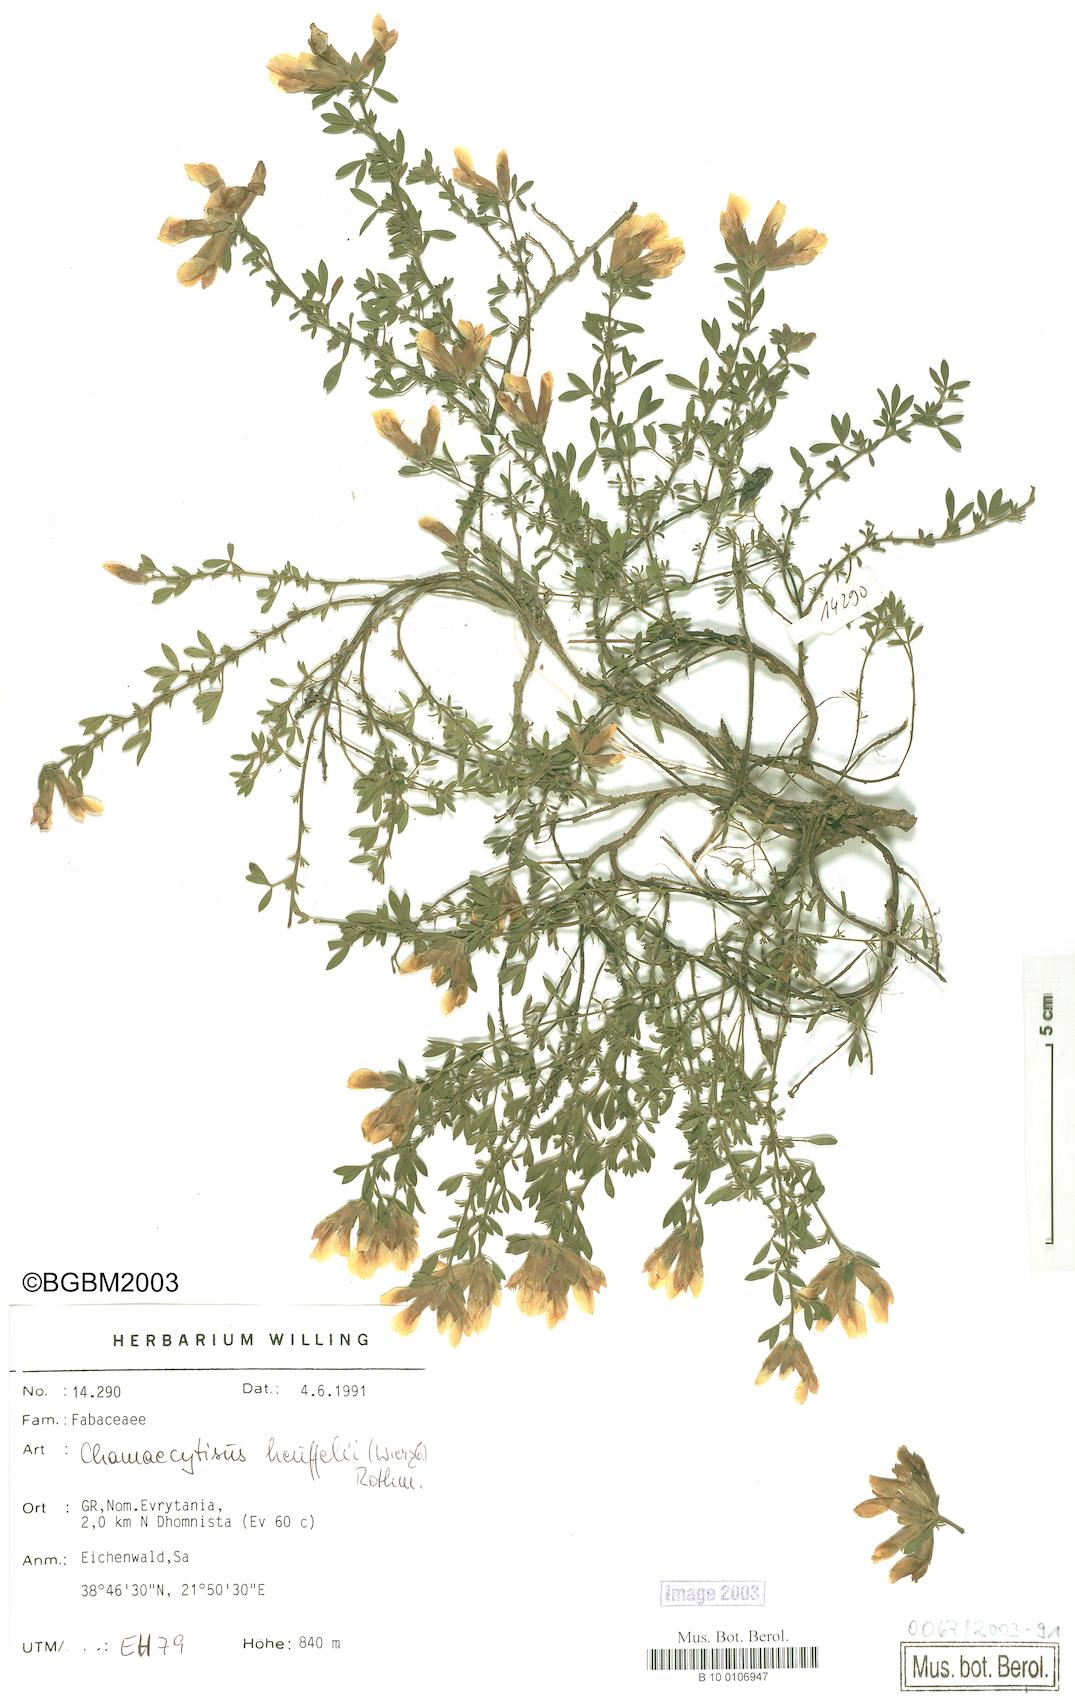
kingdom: Plantae
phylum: Tracheophyta
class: Magnoliopsida
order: Fabales
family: Fabaceae
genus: Chamaecytisus
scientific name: Chamaecytisus heuffelii
